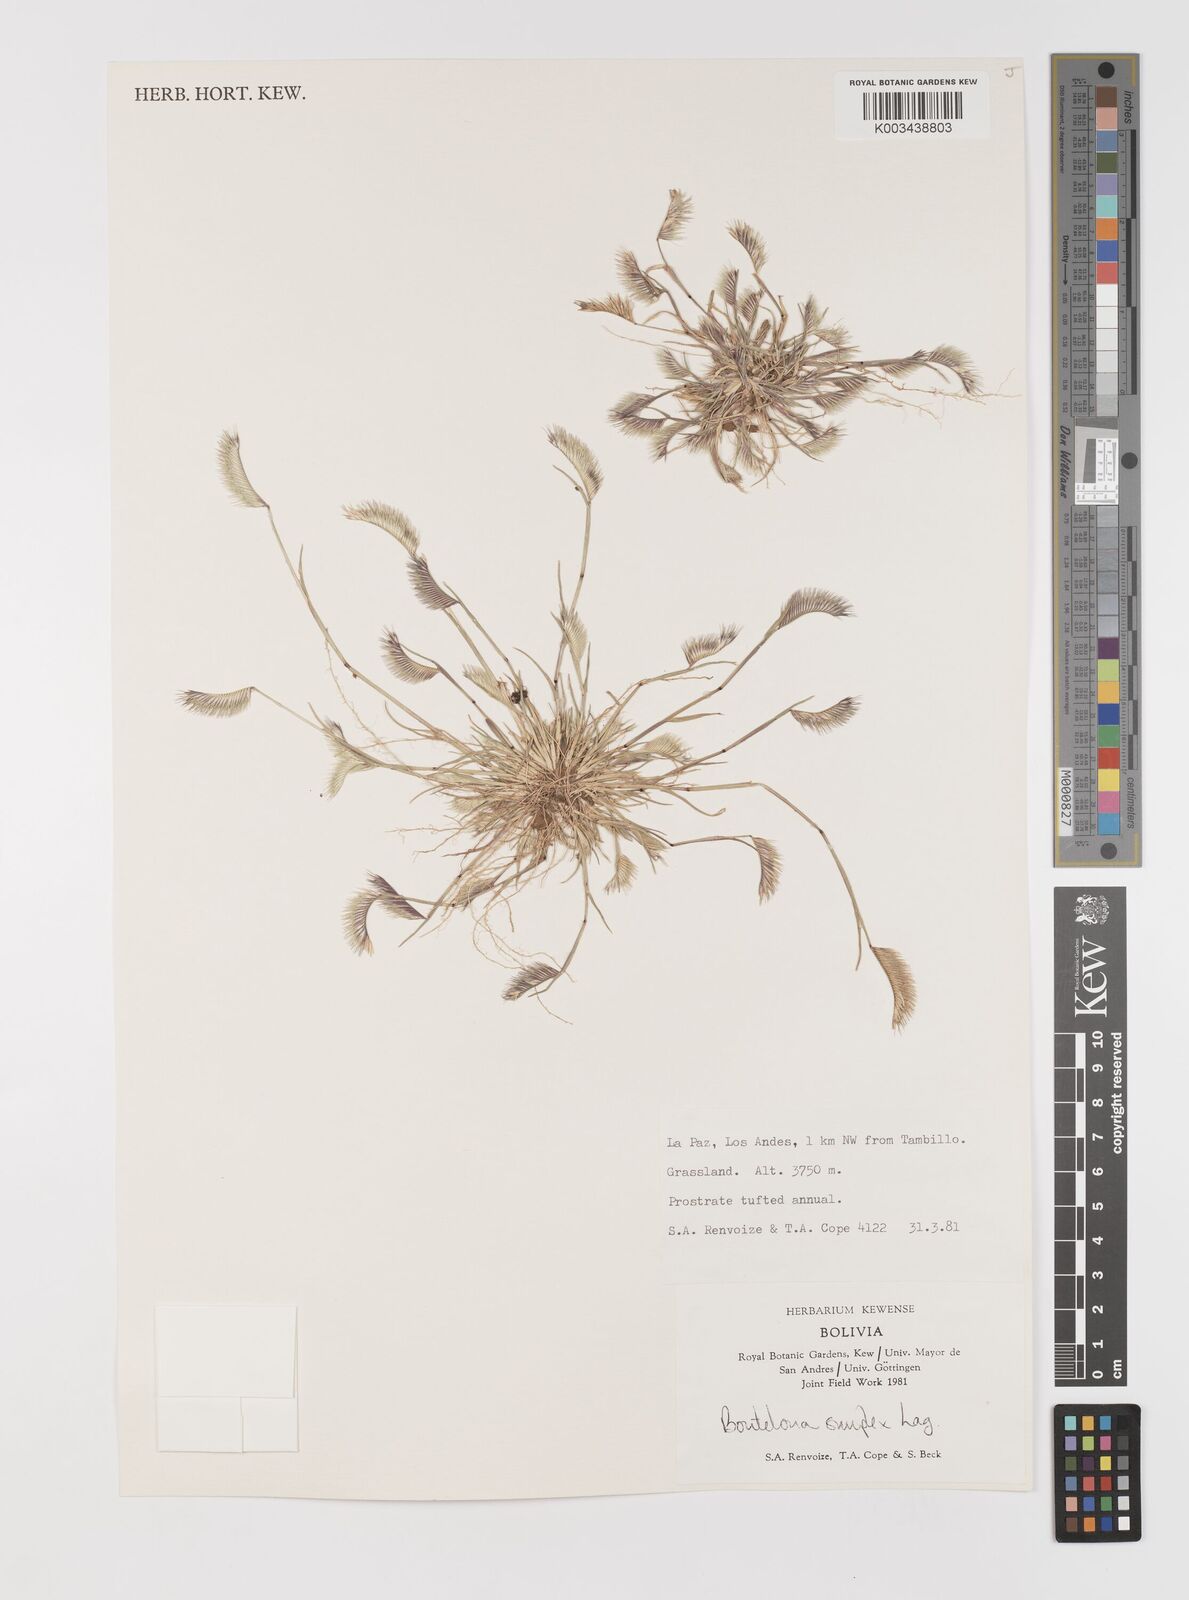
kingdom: Plantae
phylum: Tracheophyta
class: Liliopsida
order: Poales
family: Poaceae
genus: Bouteloua
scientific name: Bouteloua simplex
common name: Mat grama
